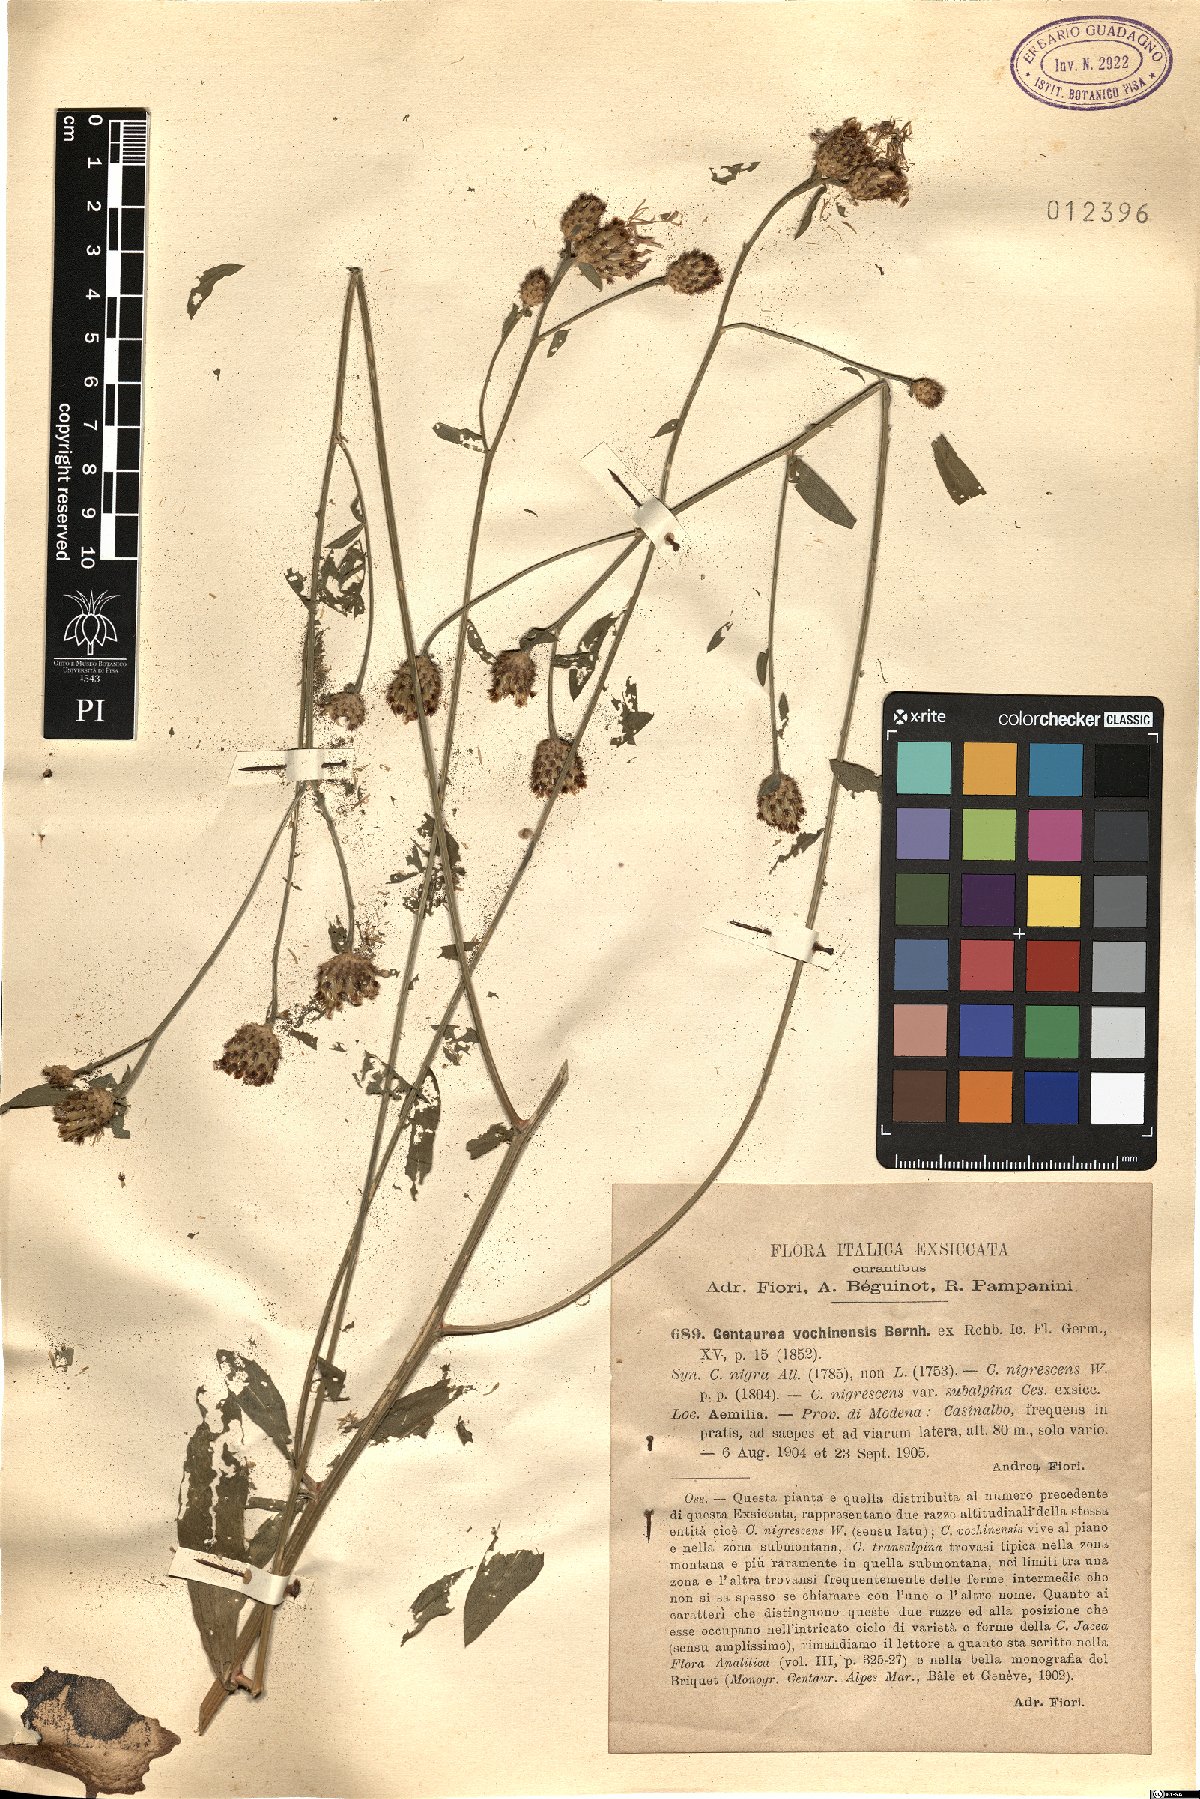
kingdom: Plantae
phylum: Tracheophyta
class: Magnoliopsida
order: Asterales
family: Asteraceae
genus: Centaurea
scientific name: Centaurea carniolica
